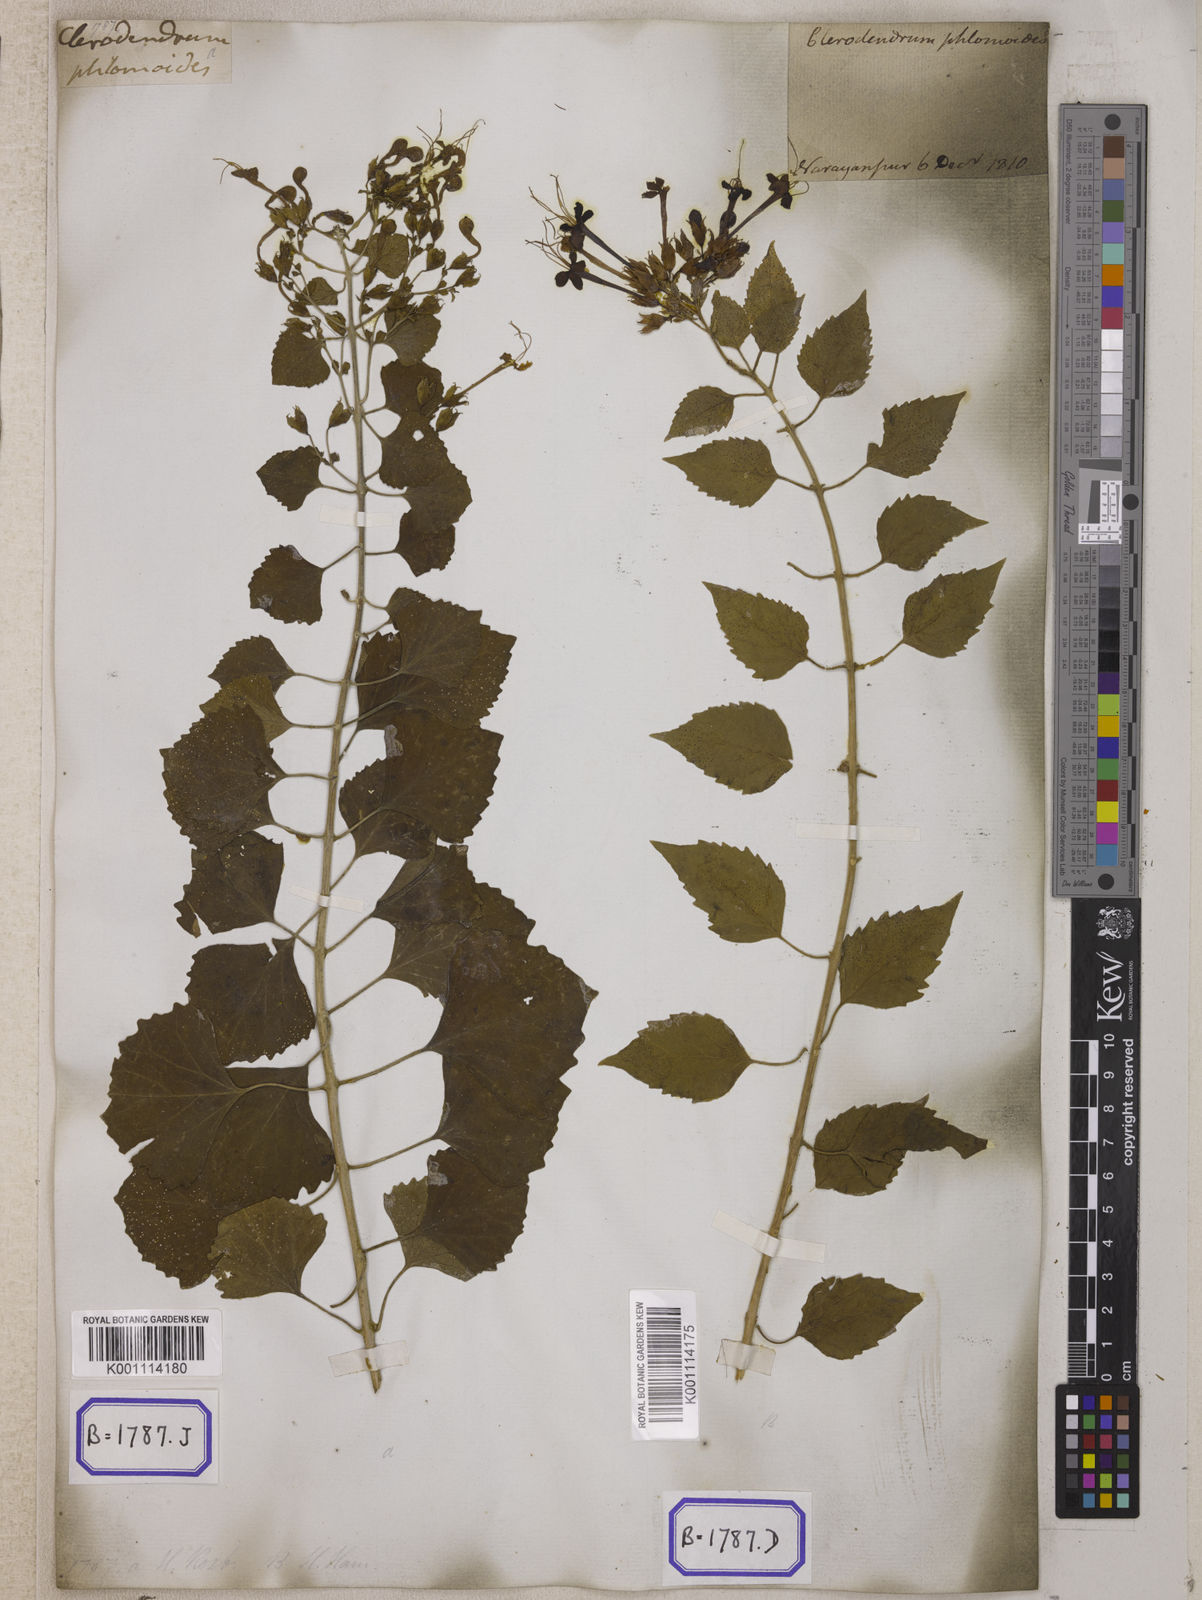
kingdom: Plantae
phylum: Tracheophyta
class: Magnoliopsida
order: Lamiales
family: Lamiaceae
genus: Clerodendrum
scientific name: Clerodendrum
